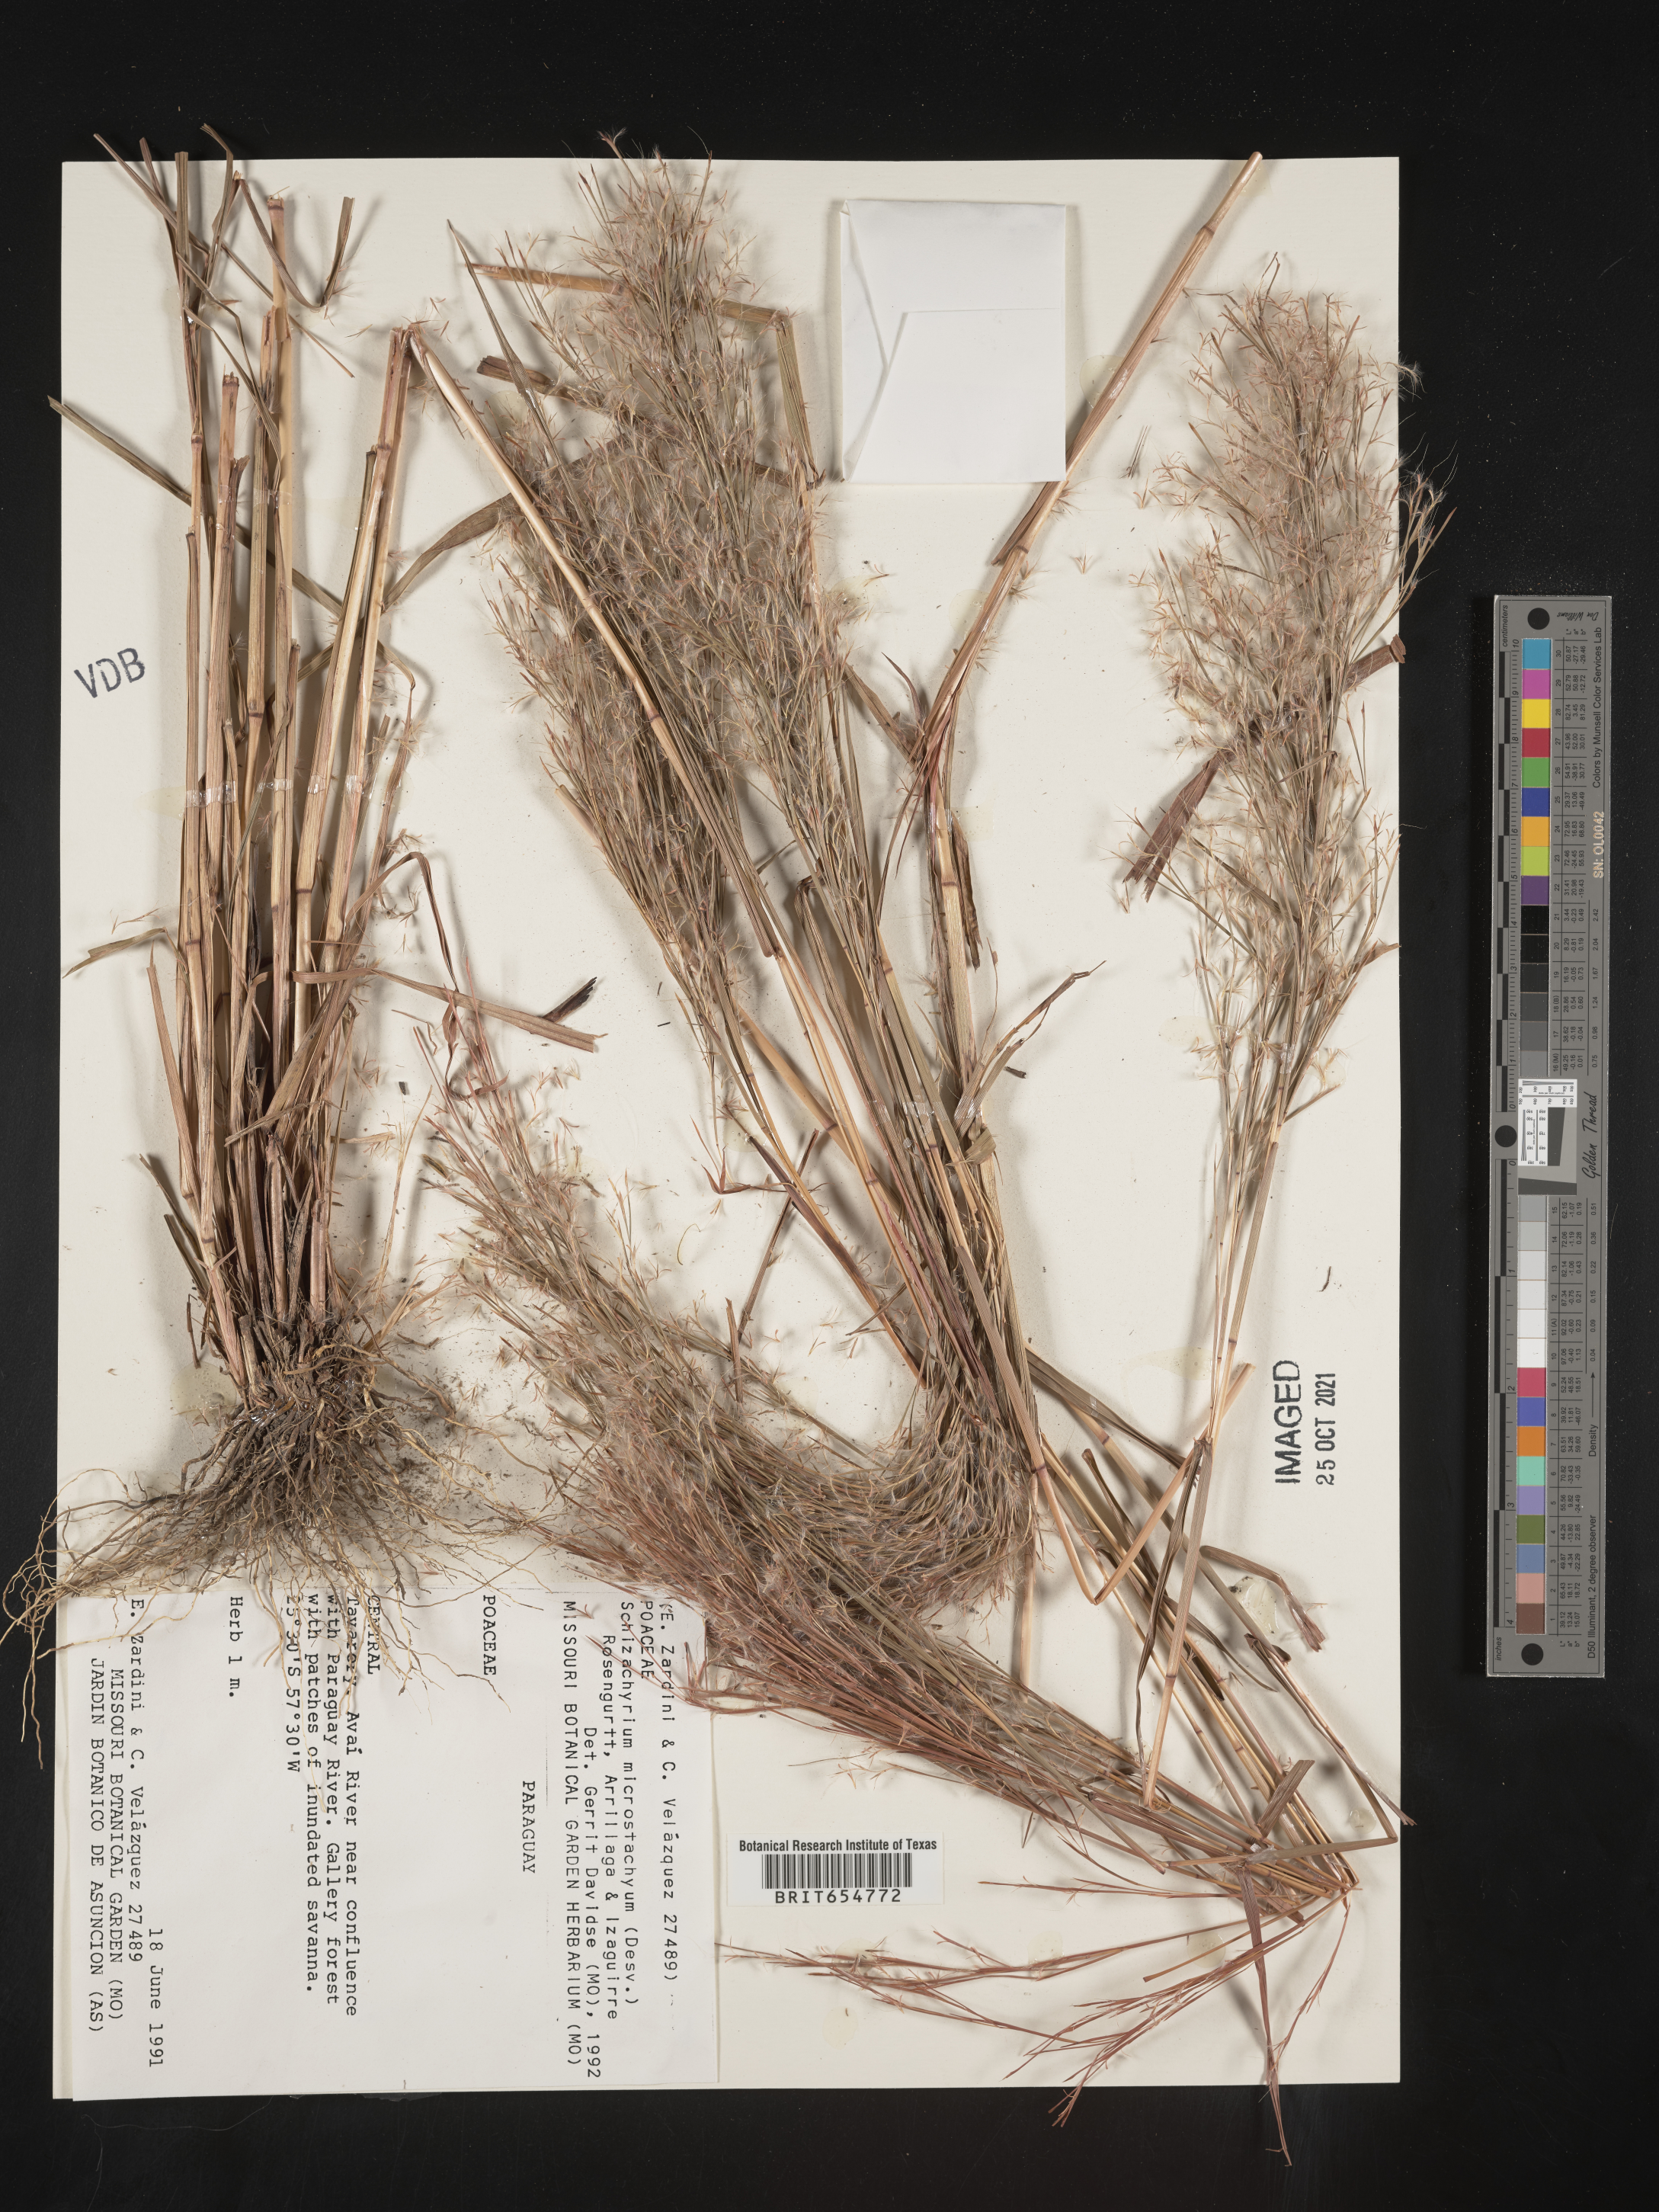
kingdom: Plantae
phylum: Tracheophyta
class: Liliopsida
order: Poales
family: Poaceae
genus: Andropogon
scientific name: Andropogon
